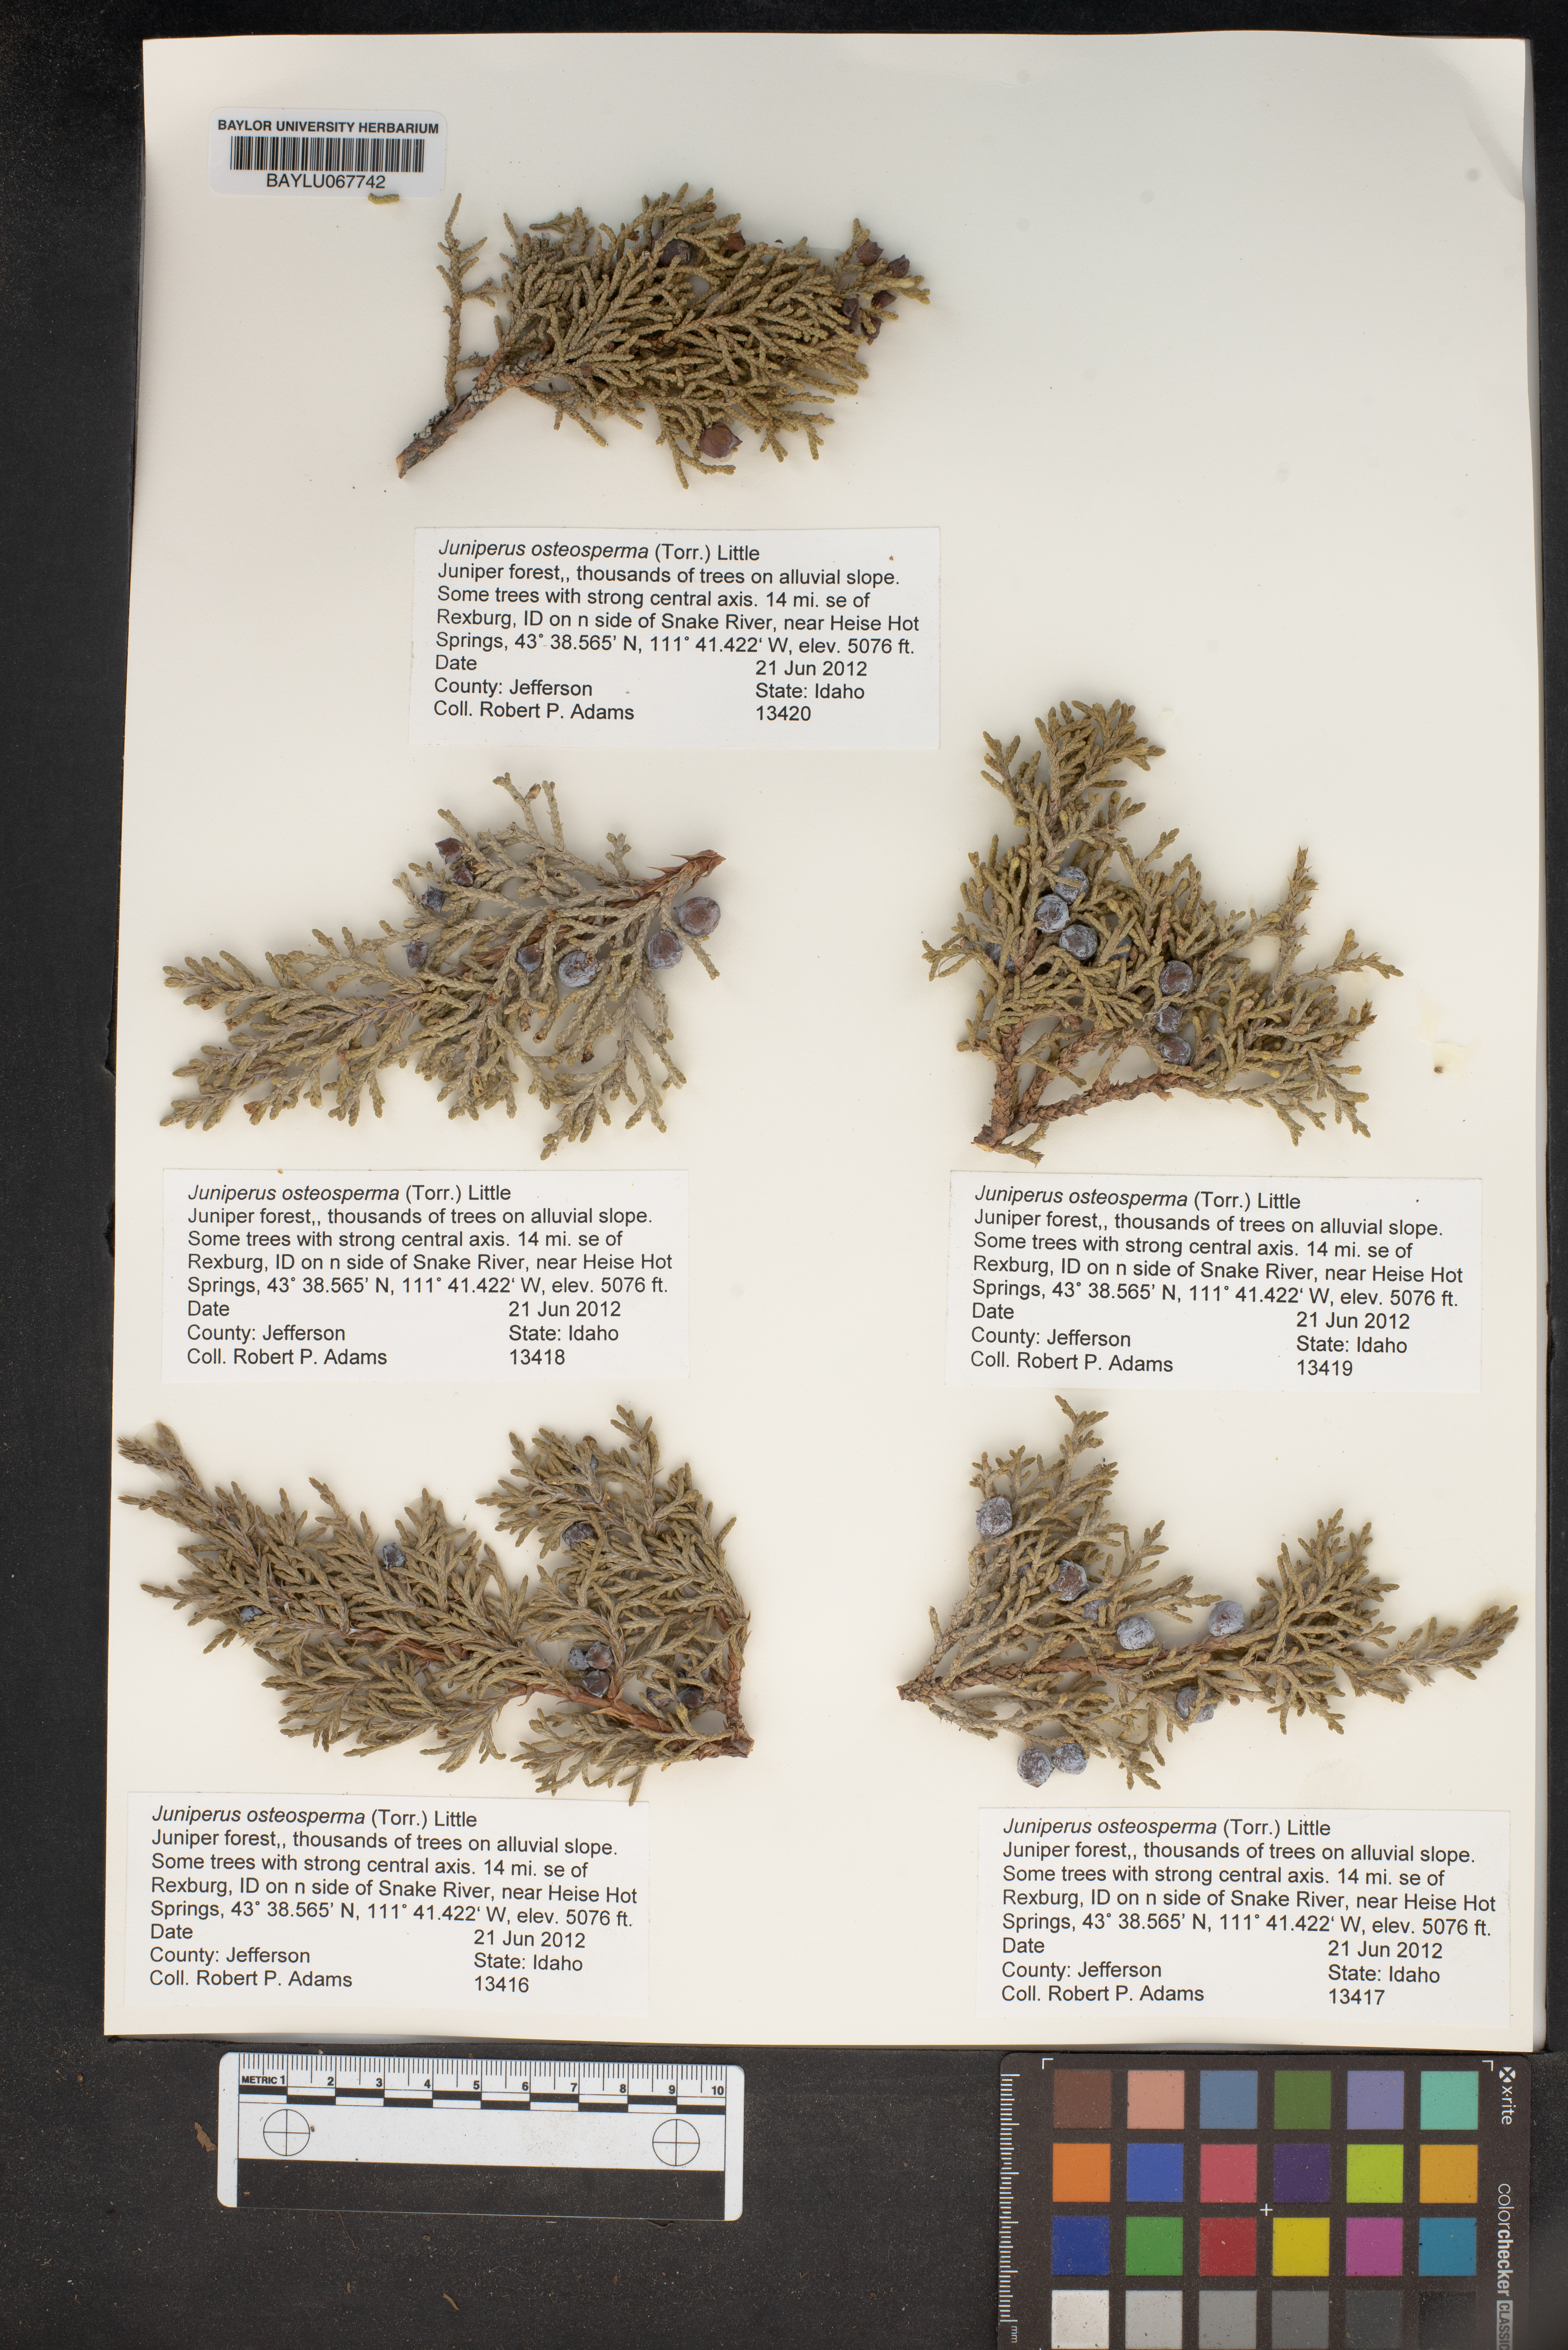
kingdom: Plantae
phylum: Tracheophyta
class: Pinopsida
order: Pinales
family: Cupressaceae
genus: Juniperus
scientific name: Juniperus osteosperma
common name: Utah juniper
